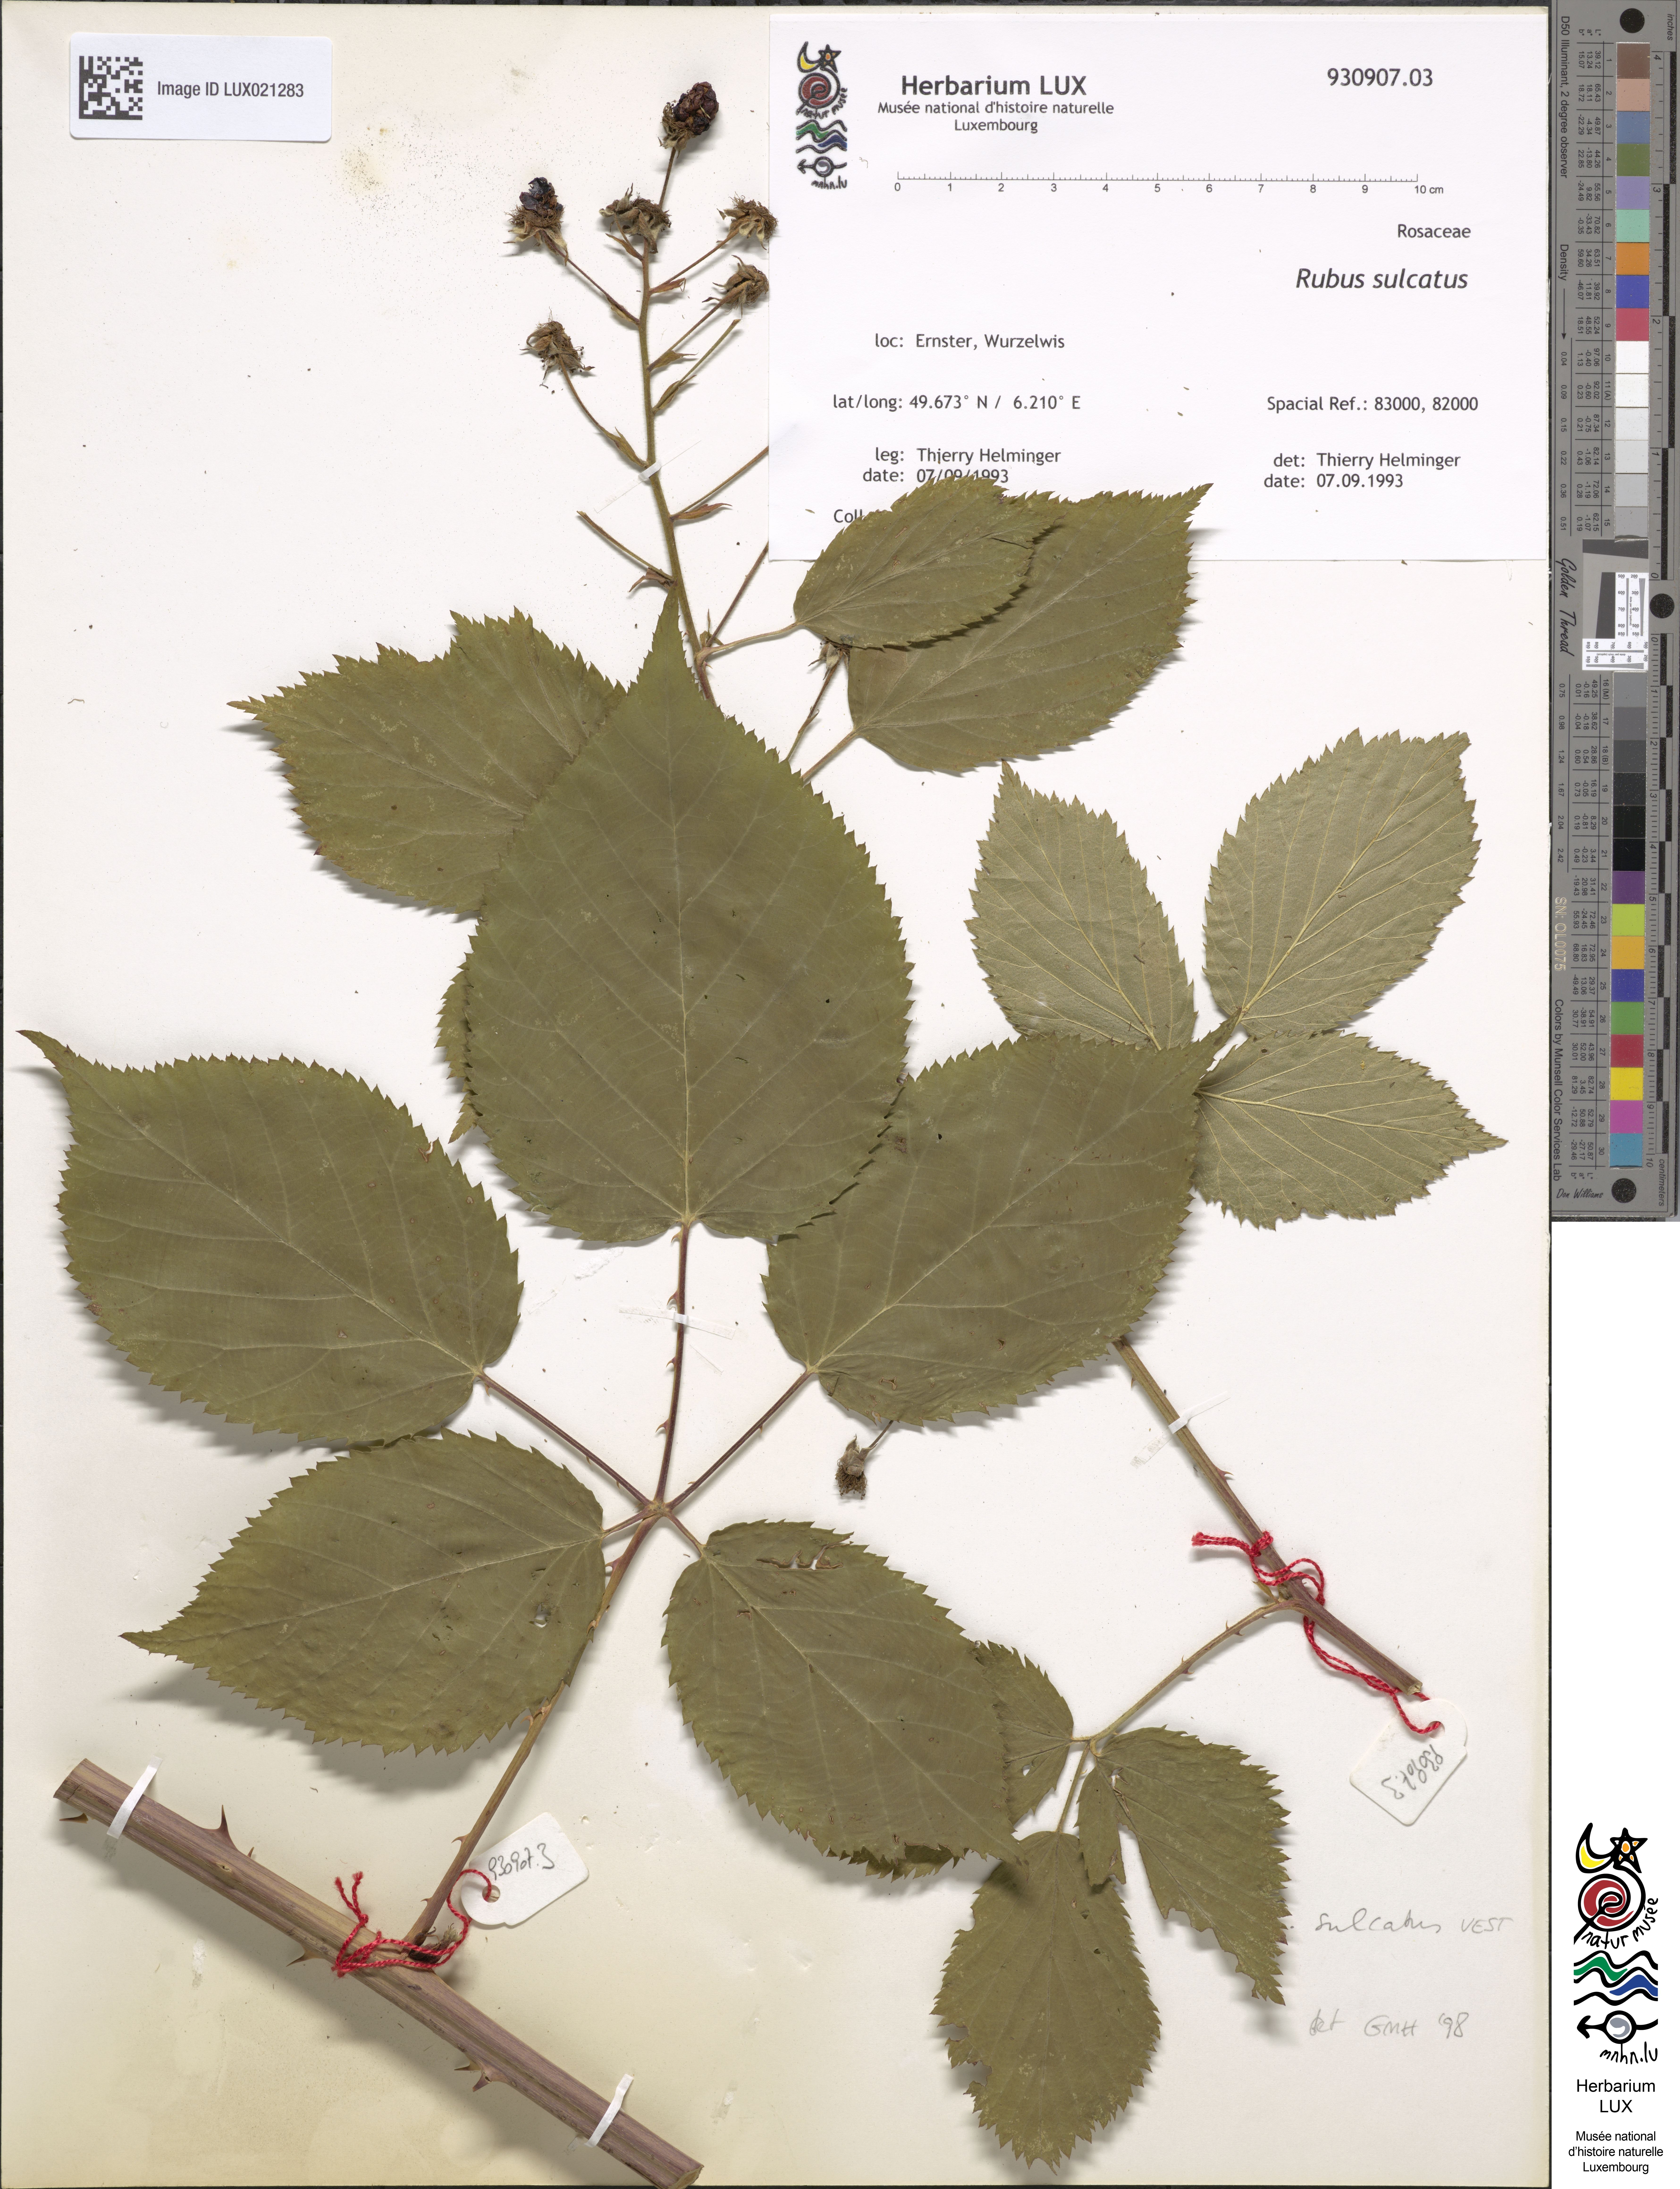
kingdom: Plantae
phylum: Tracheophyta
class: Magnoliopsida
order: Rosales
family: Rosaceae
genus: Rubus
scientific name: Rubus sulcatus
